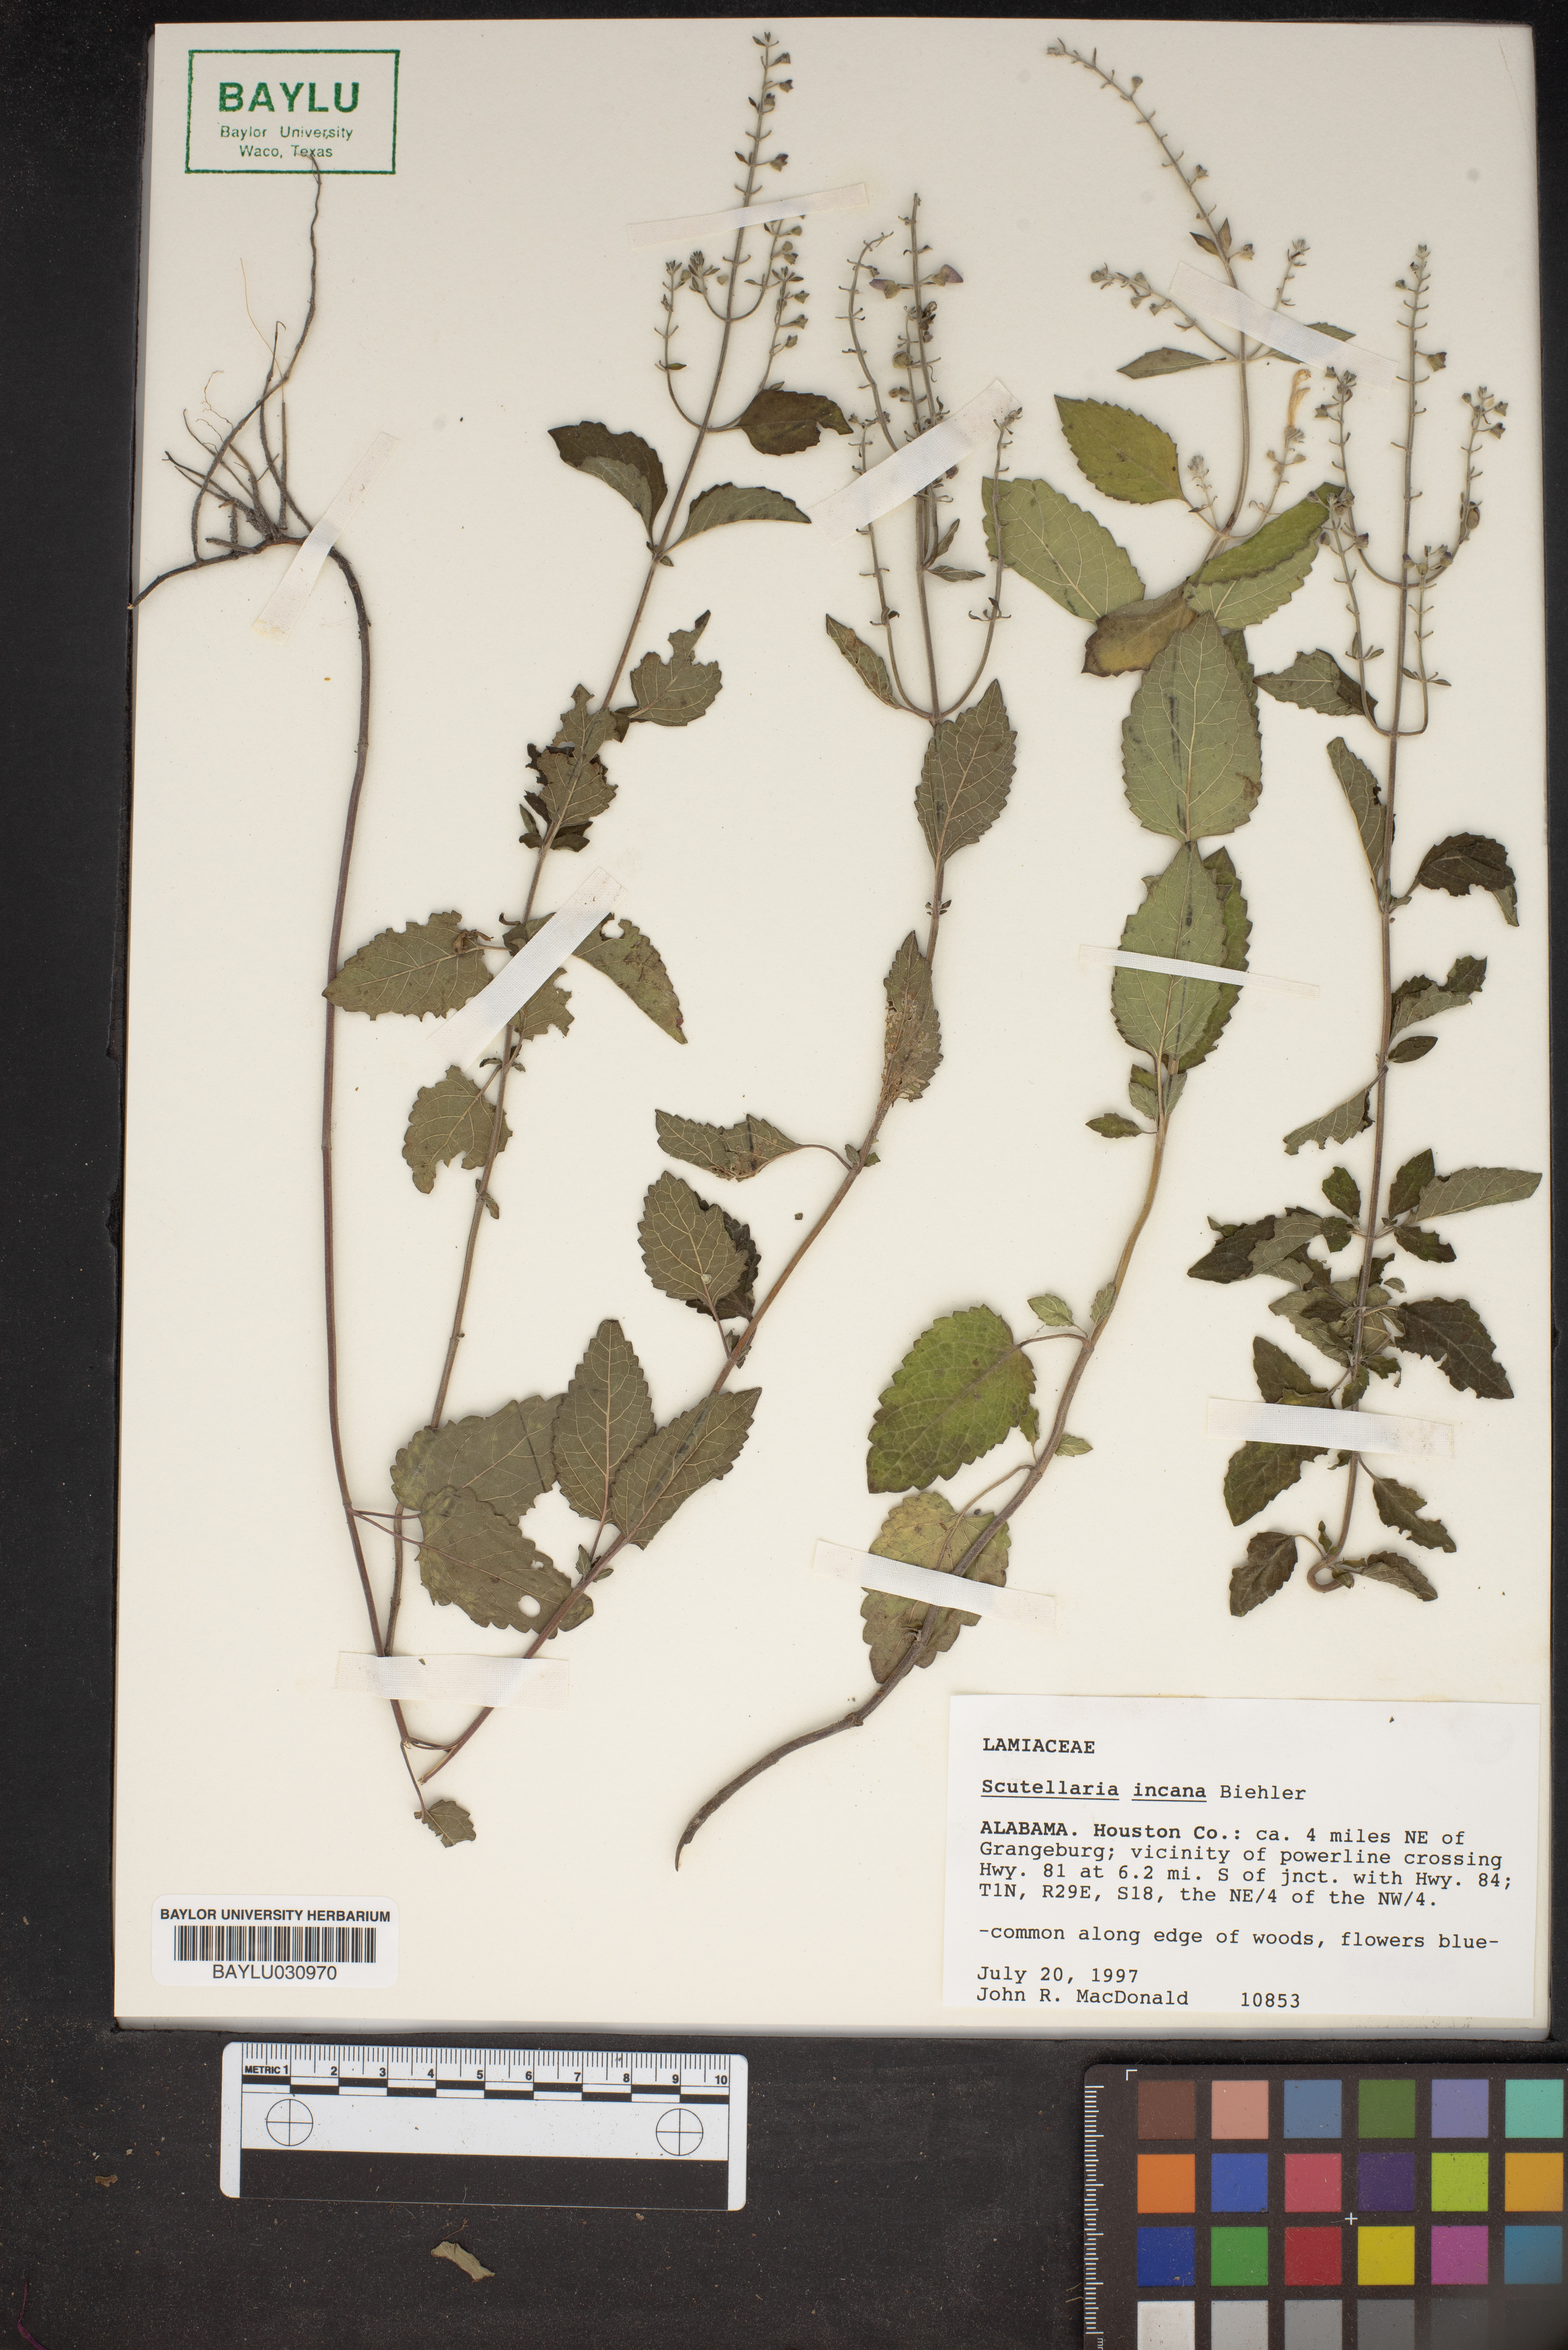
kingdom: Plantae
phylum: Tracheophyta
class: Magnoliopsida
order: Lamiales
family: Lamiaceae
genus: Scutellaria
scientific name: Scutellaria incana
